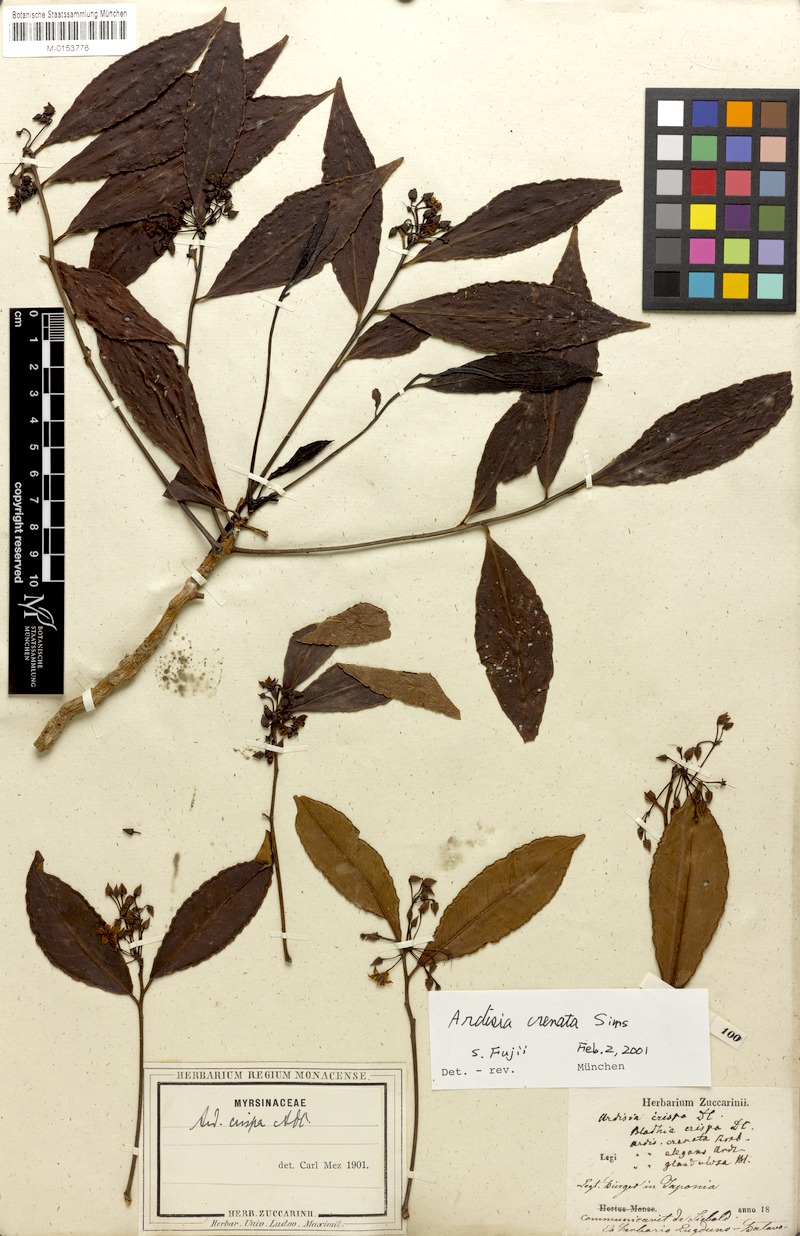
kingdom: Plantae
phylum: Tracheophyta
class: Magnoliopsida
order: Ericales
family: Primulaceae
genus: Ardisia
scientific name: Ardisia crenata
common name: Hen's eyes
